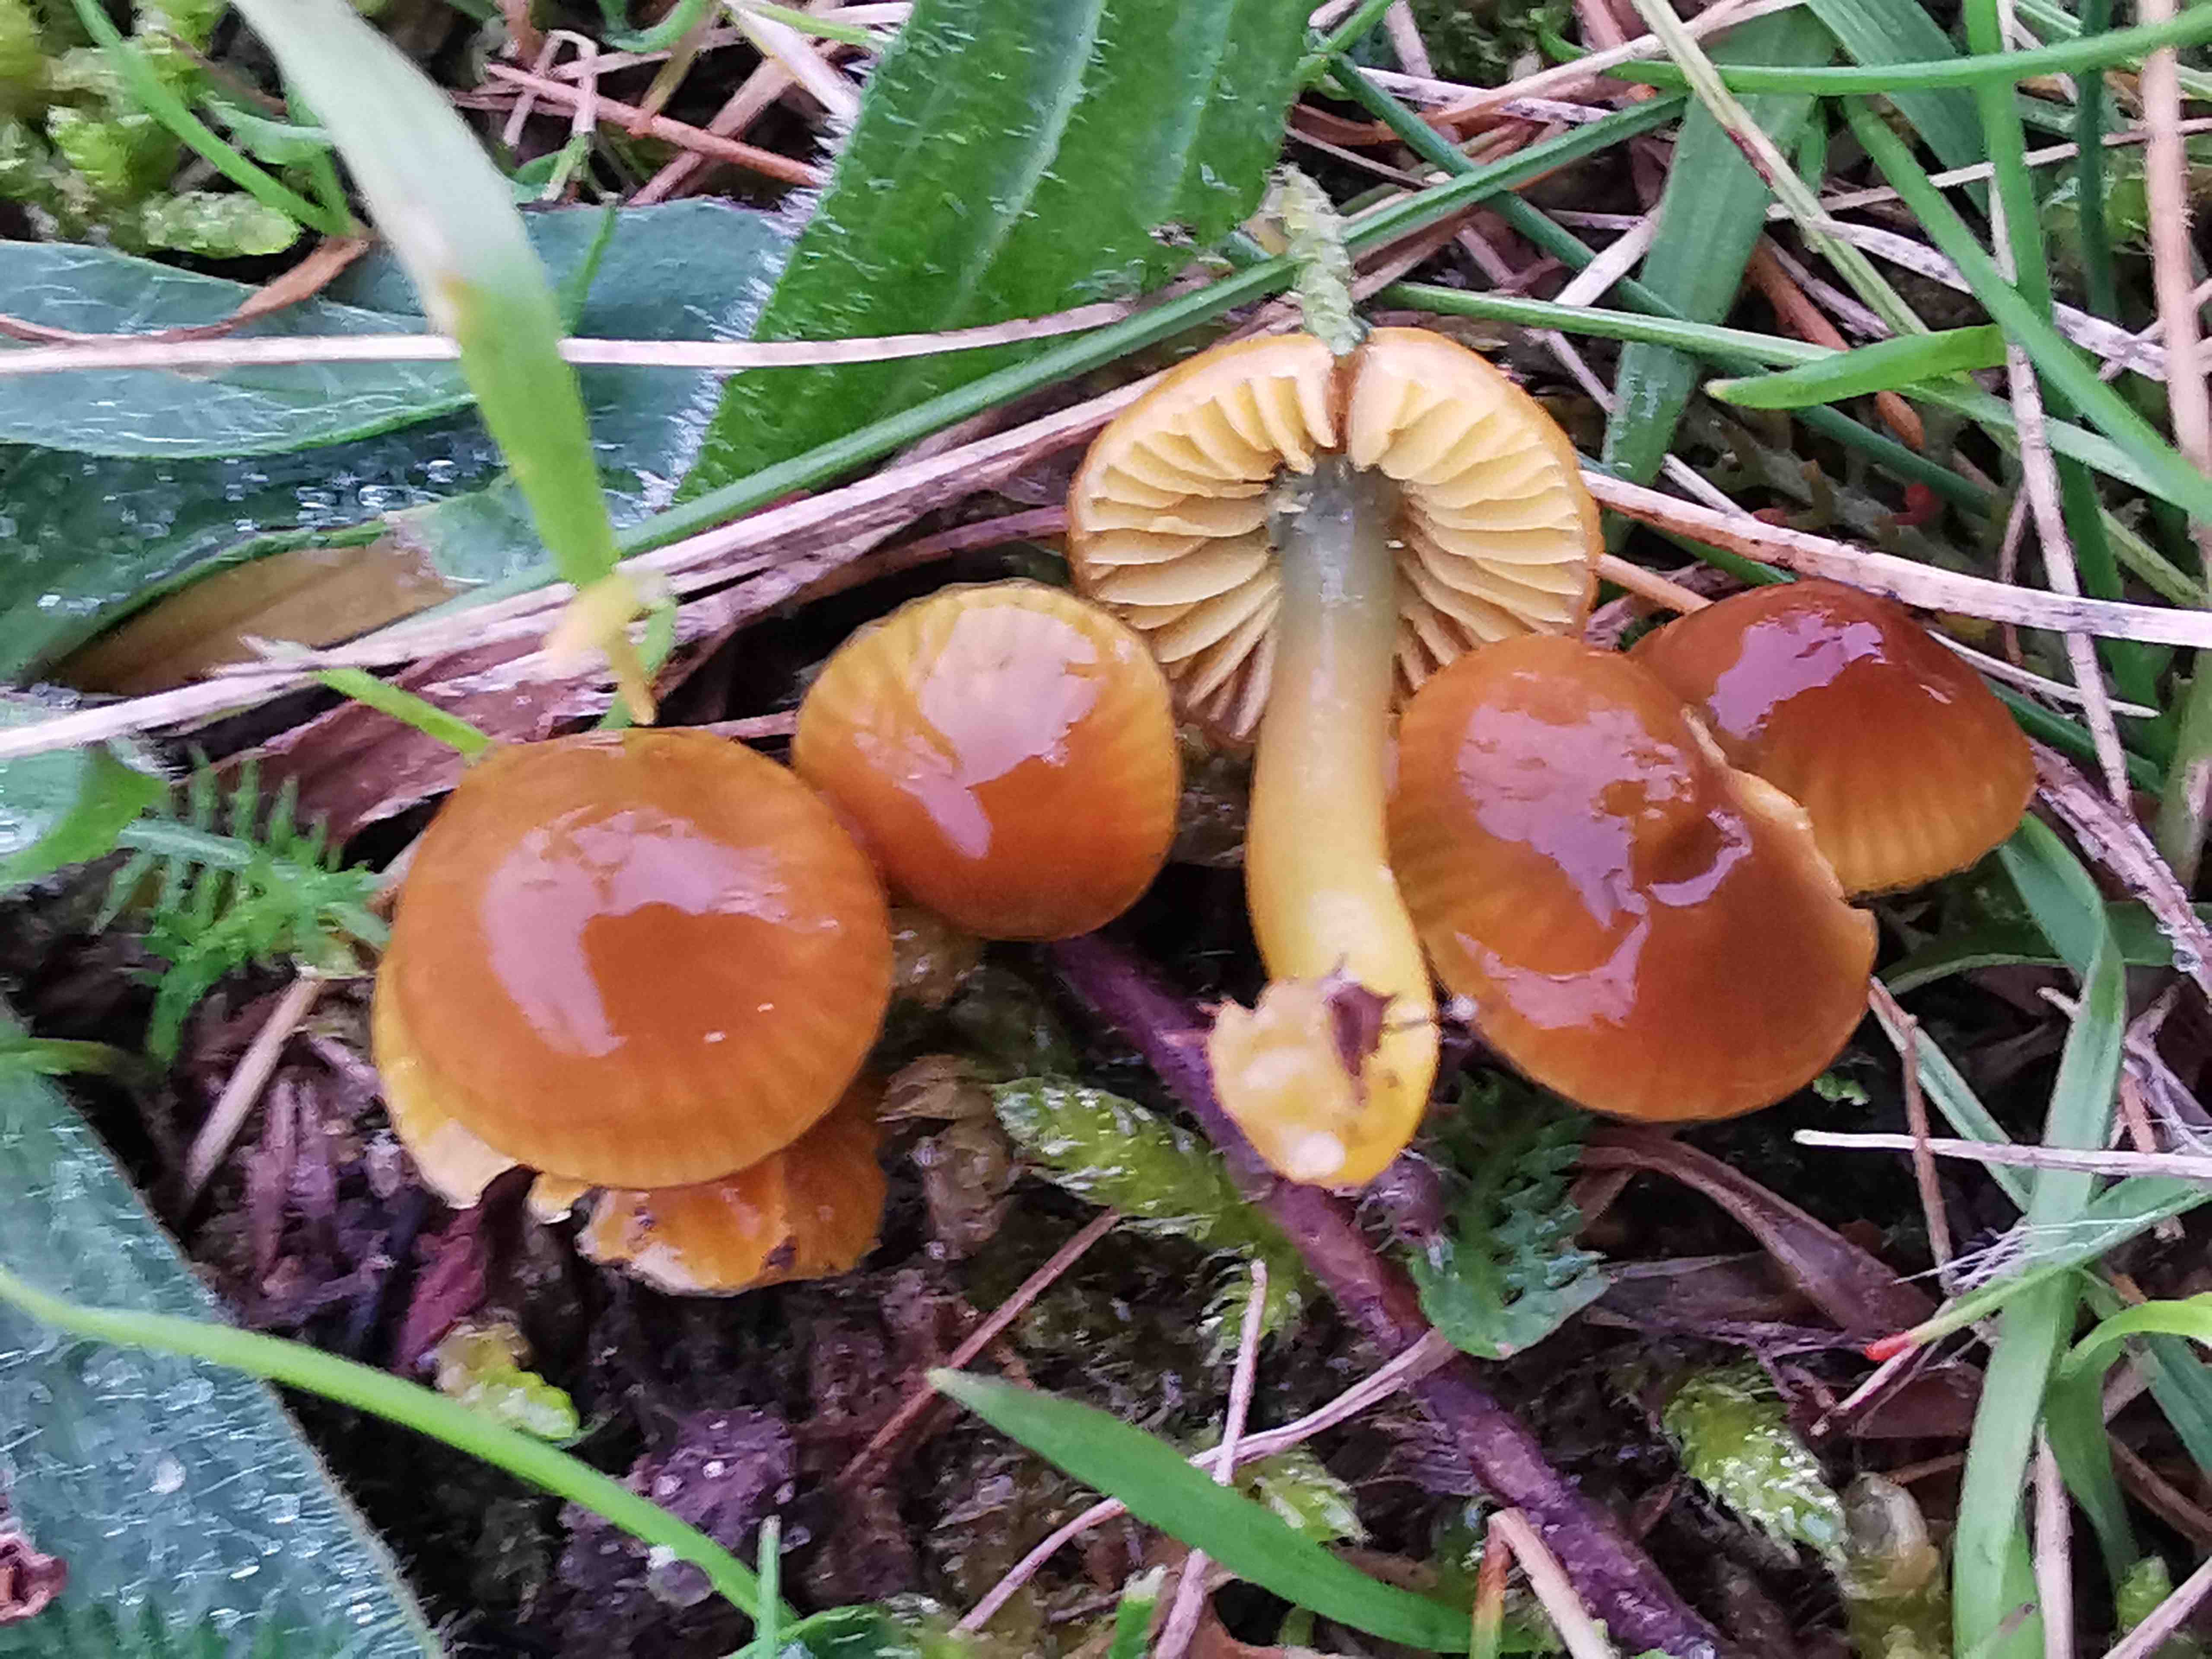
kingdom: Fungi
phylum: Basidiomycota
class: Agaricomycetes
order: Agaricales
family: Hygrophoraceae
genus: Gliophorus
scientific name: Gliophorus psittacinus
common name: papegøje-vokshat
